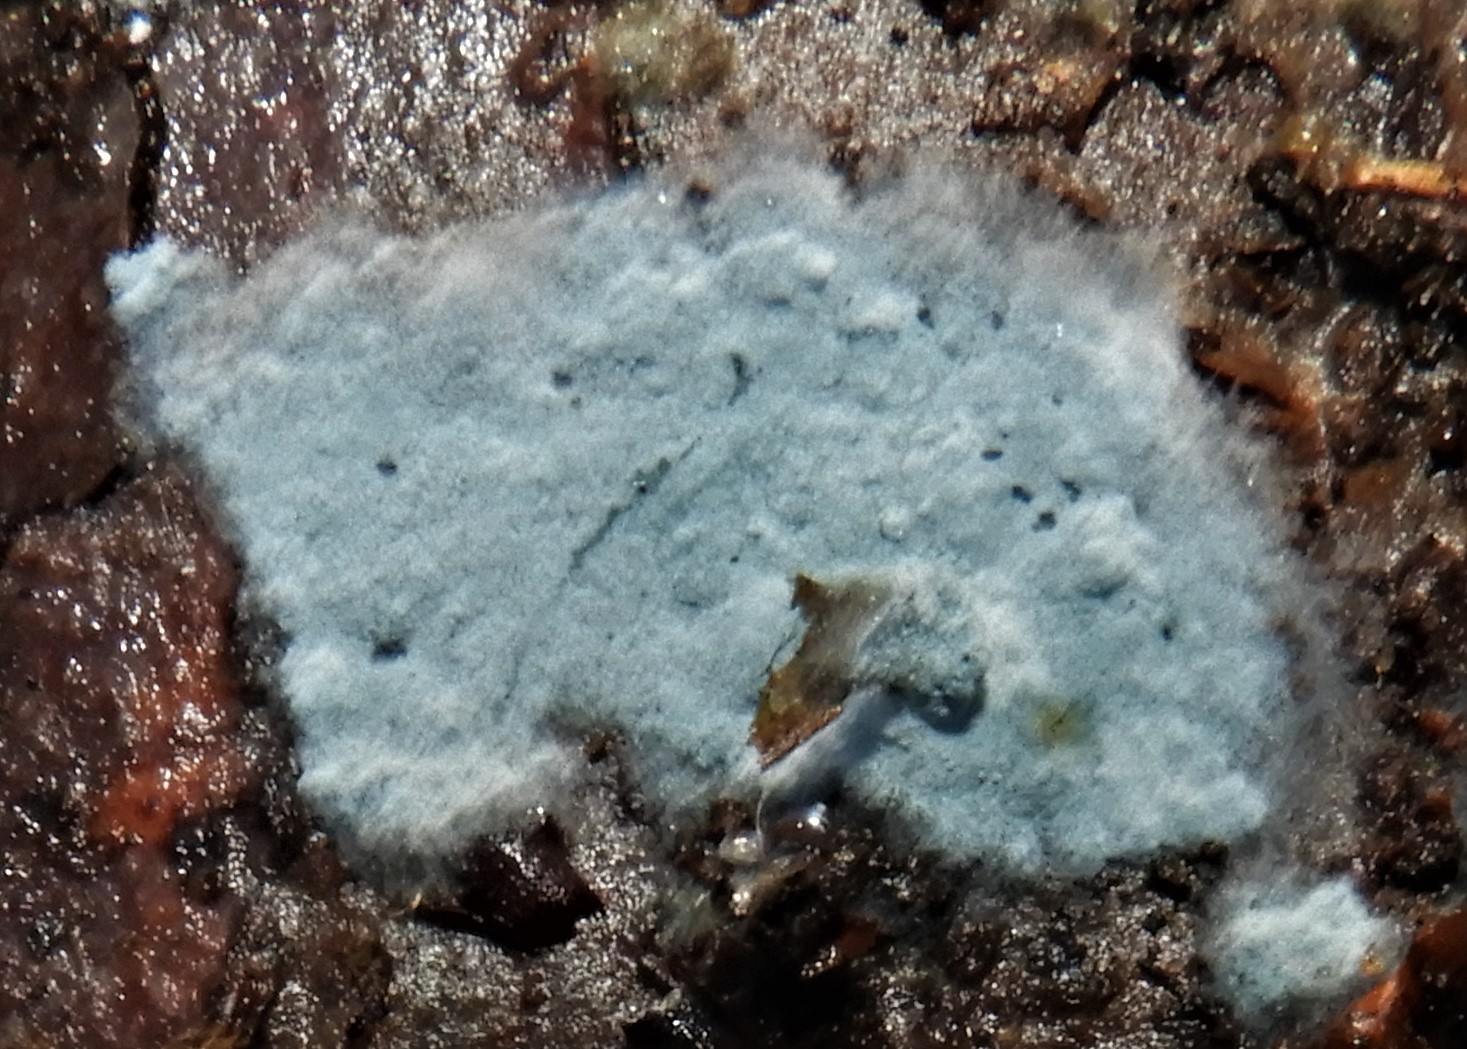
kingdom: Fungi
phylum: Basidiomycota
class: Agaricomycetes
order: Atheliales
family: Atheliaceae
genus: Byssocorticium
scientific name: Byssocorticium atrovirens
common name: blå førnehinde
